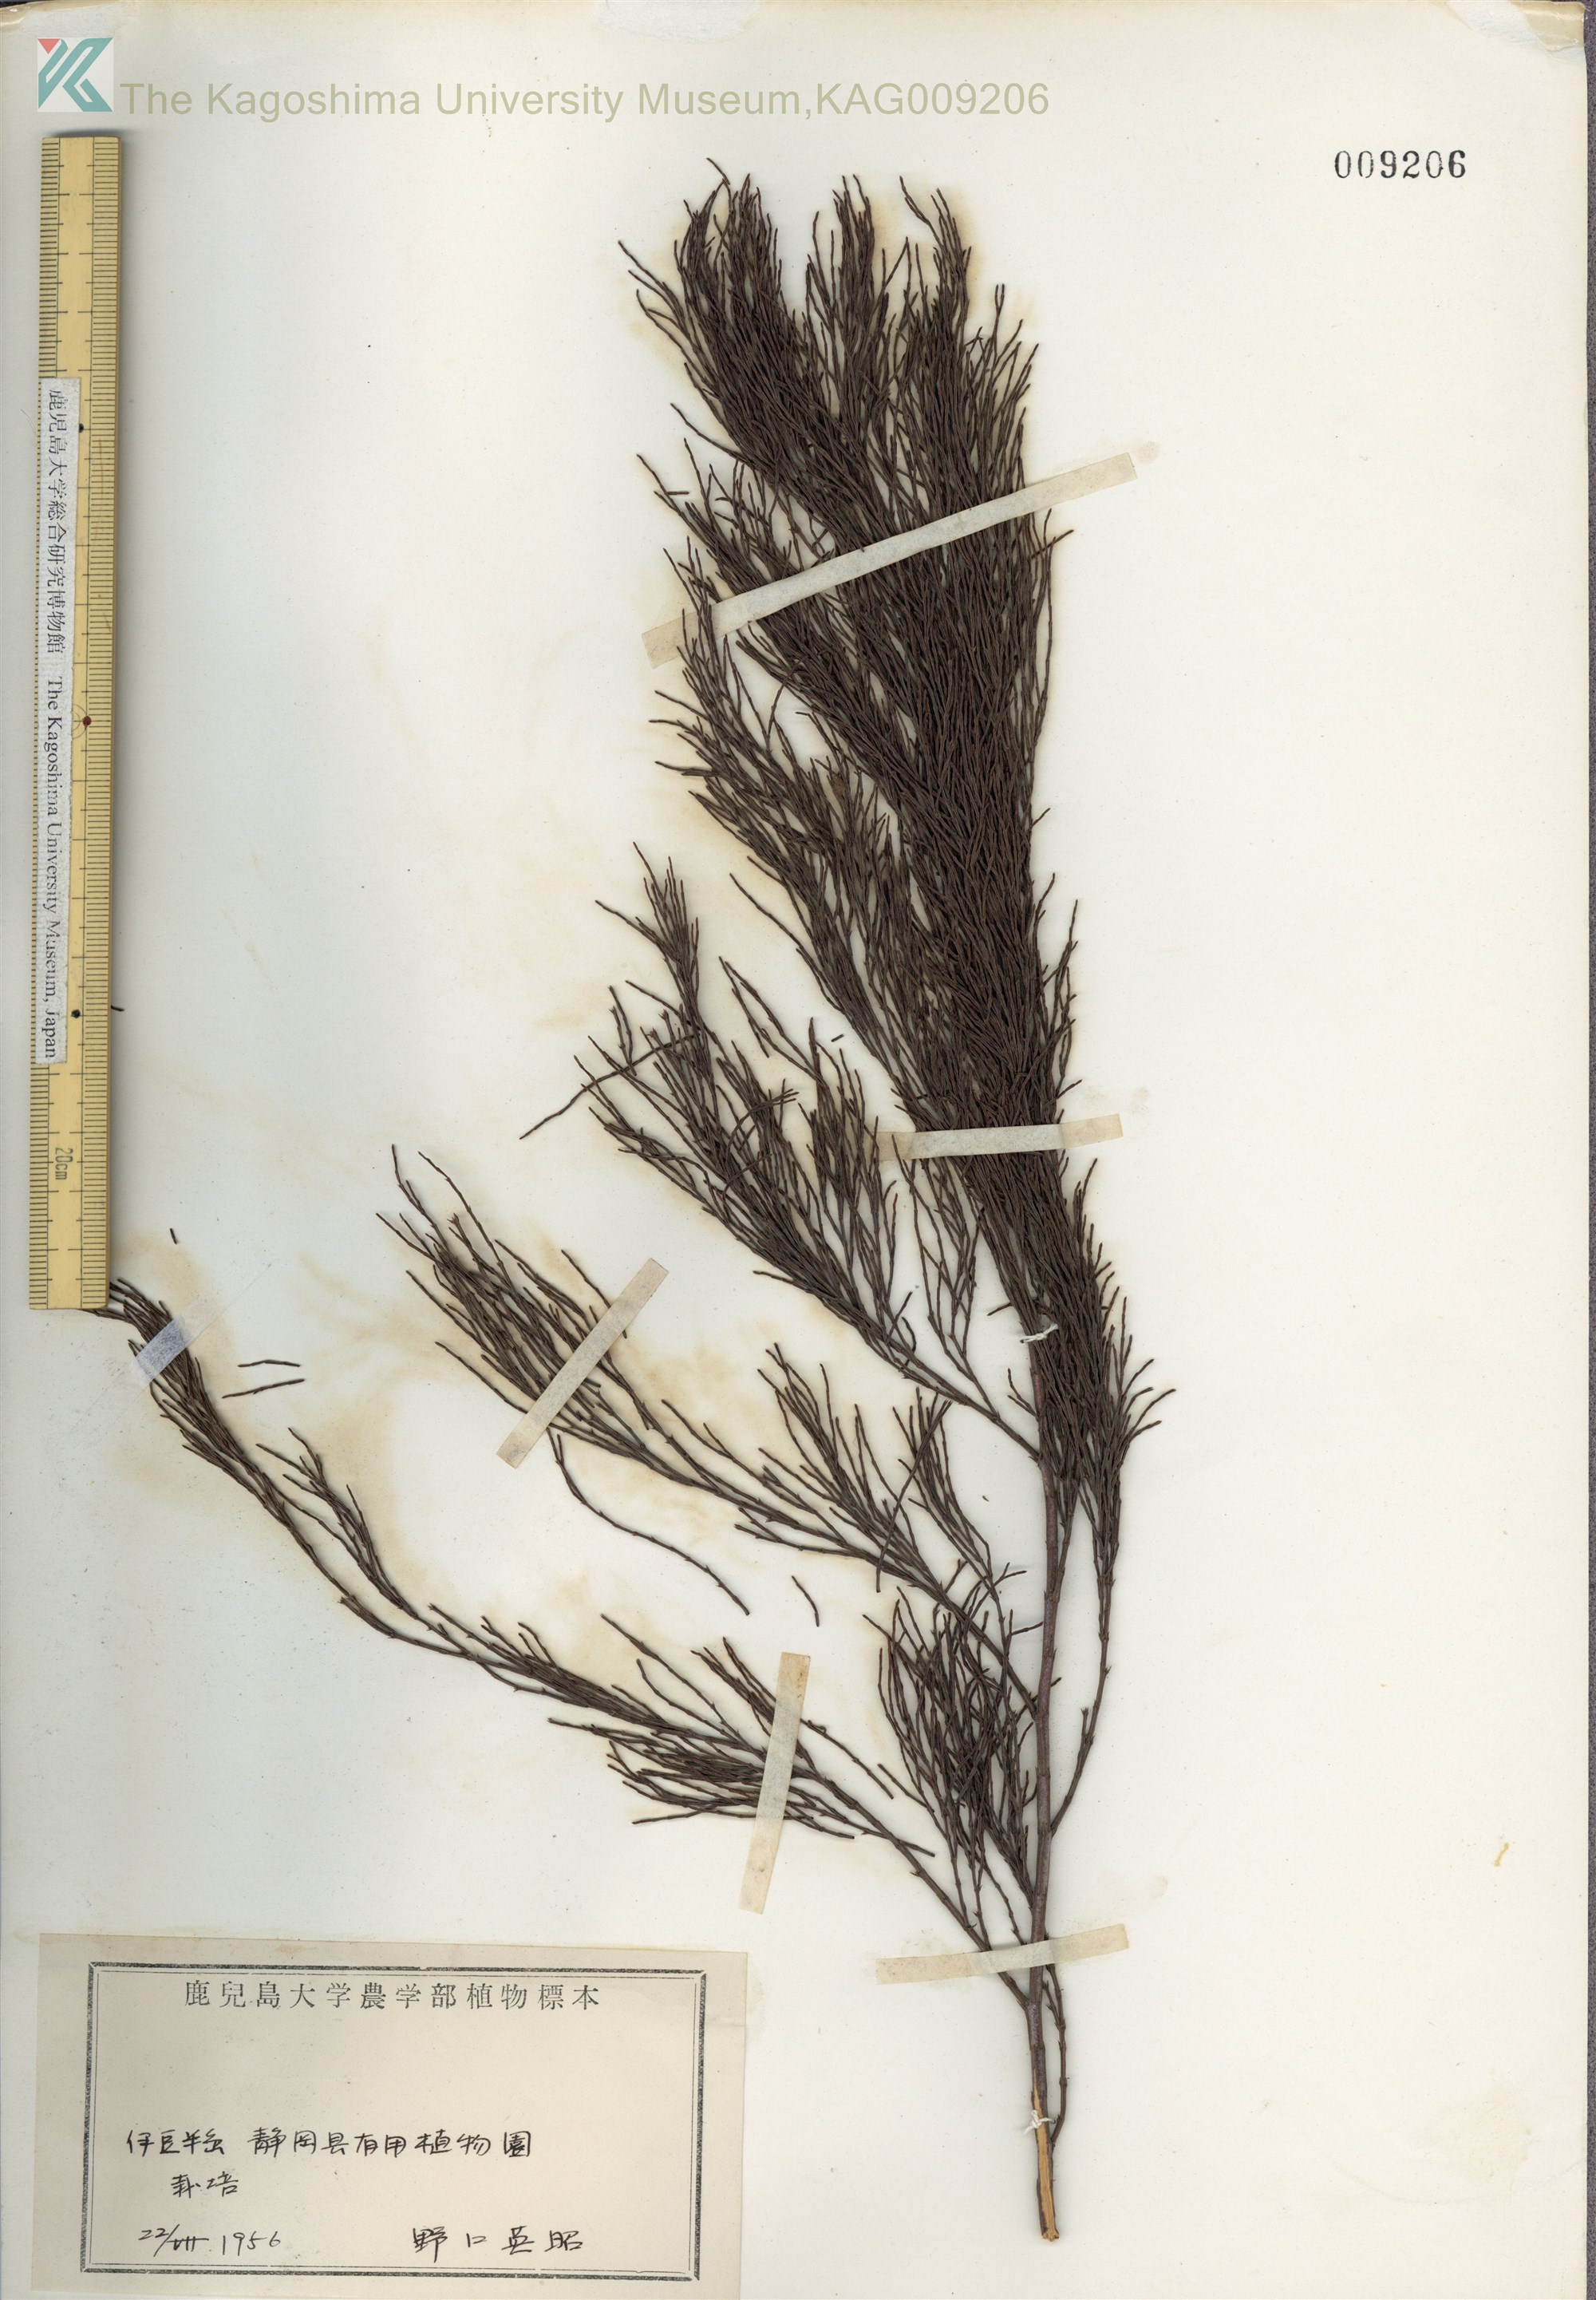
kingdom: Plantae
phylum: Tracheophyta
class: Magnoliopsida
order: Fagales
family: Casuarinaceae
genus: Casuarina
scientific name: Casuarina equisetifolia
